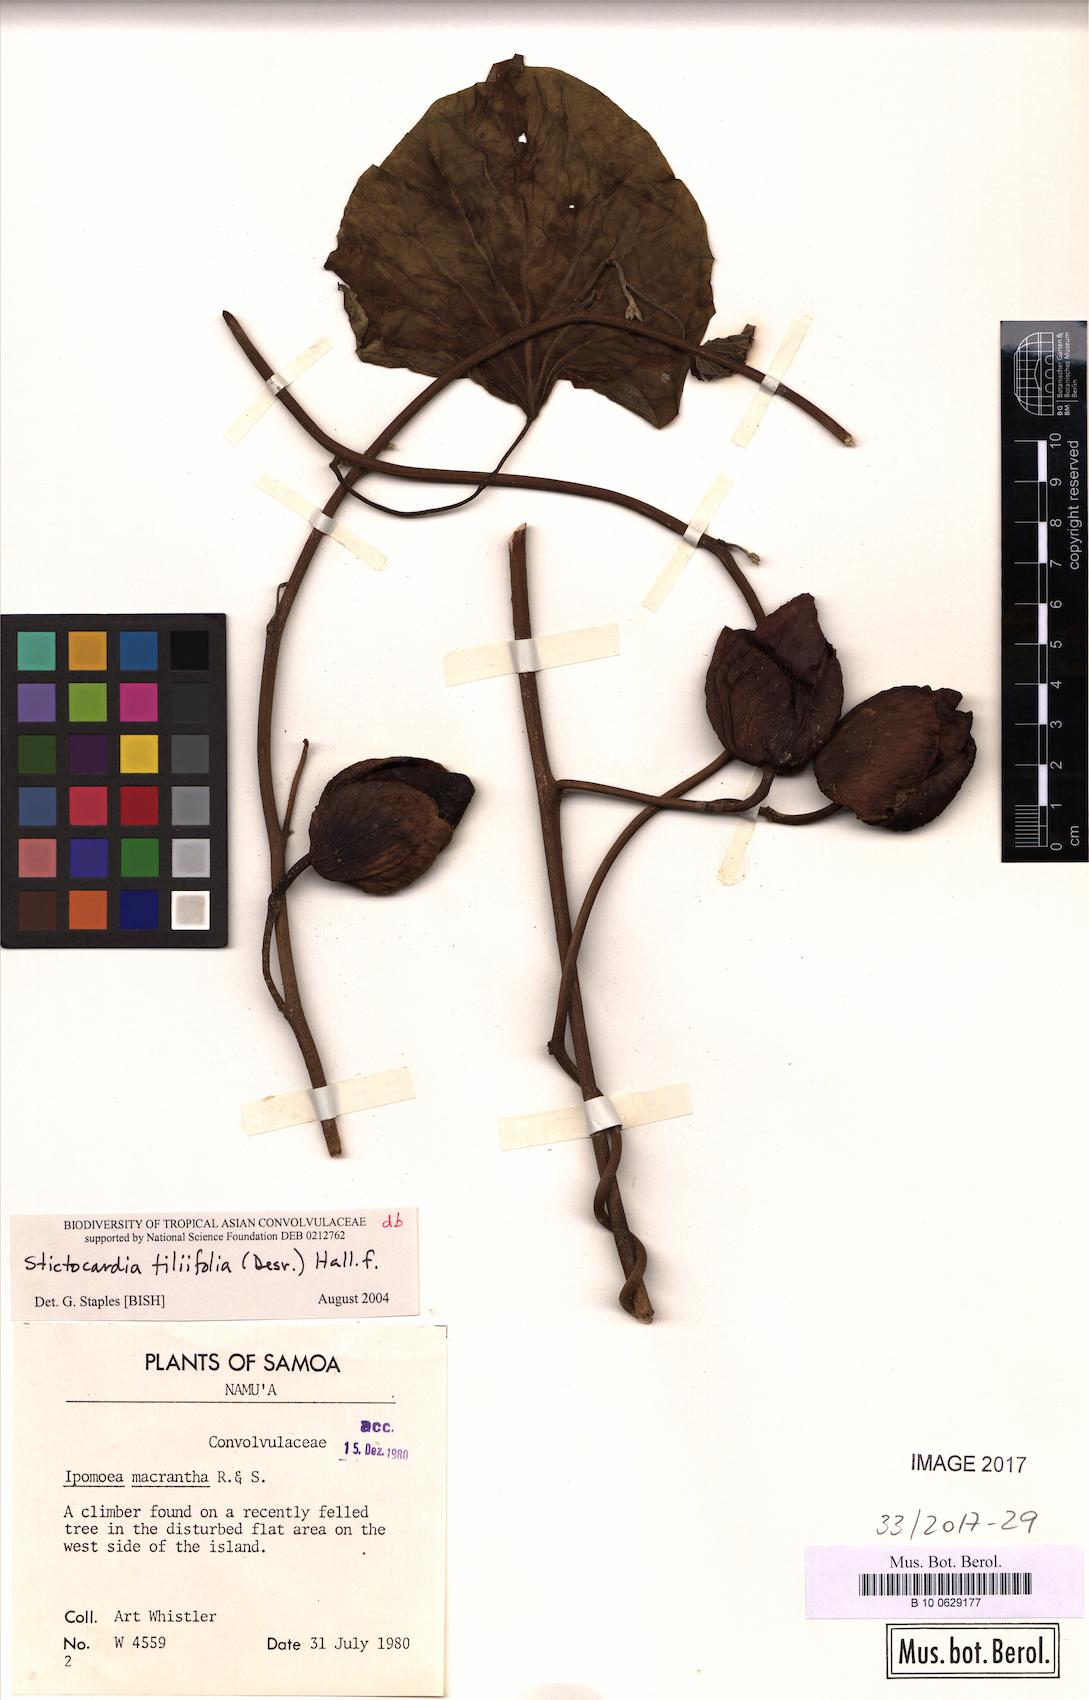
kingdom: Plantae
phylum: Tracheophyta
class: Magnoliopsida
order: Solanales
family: Convolvulaceae
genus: Stictocardia
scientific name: Stictocardia tiliifolia
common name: Spottedheart
